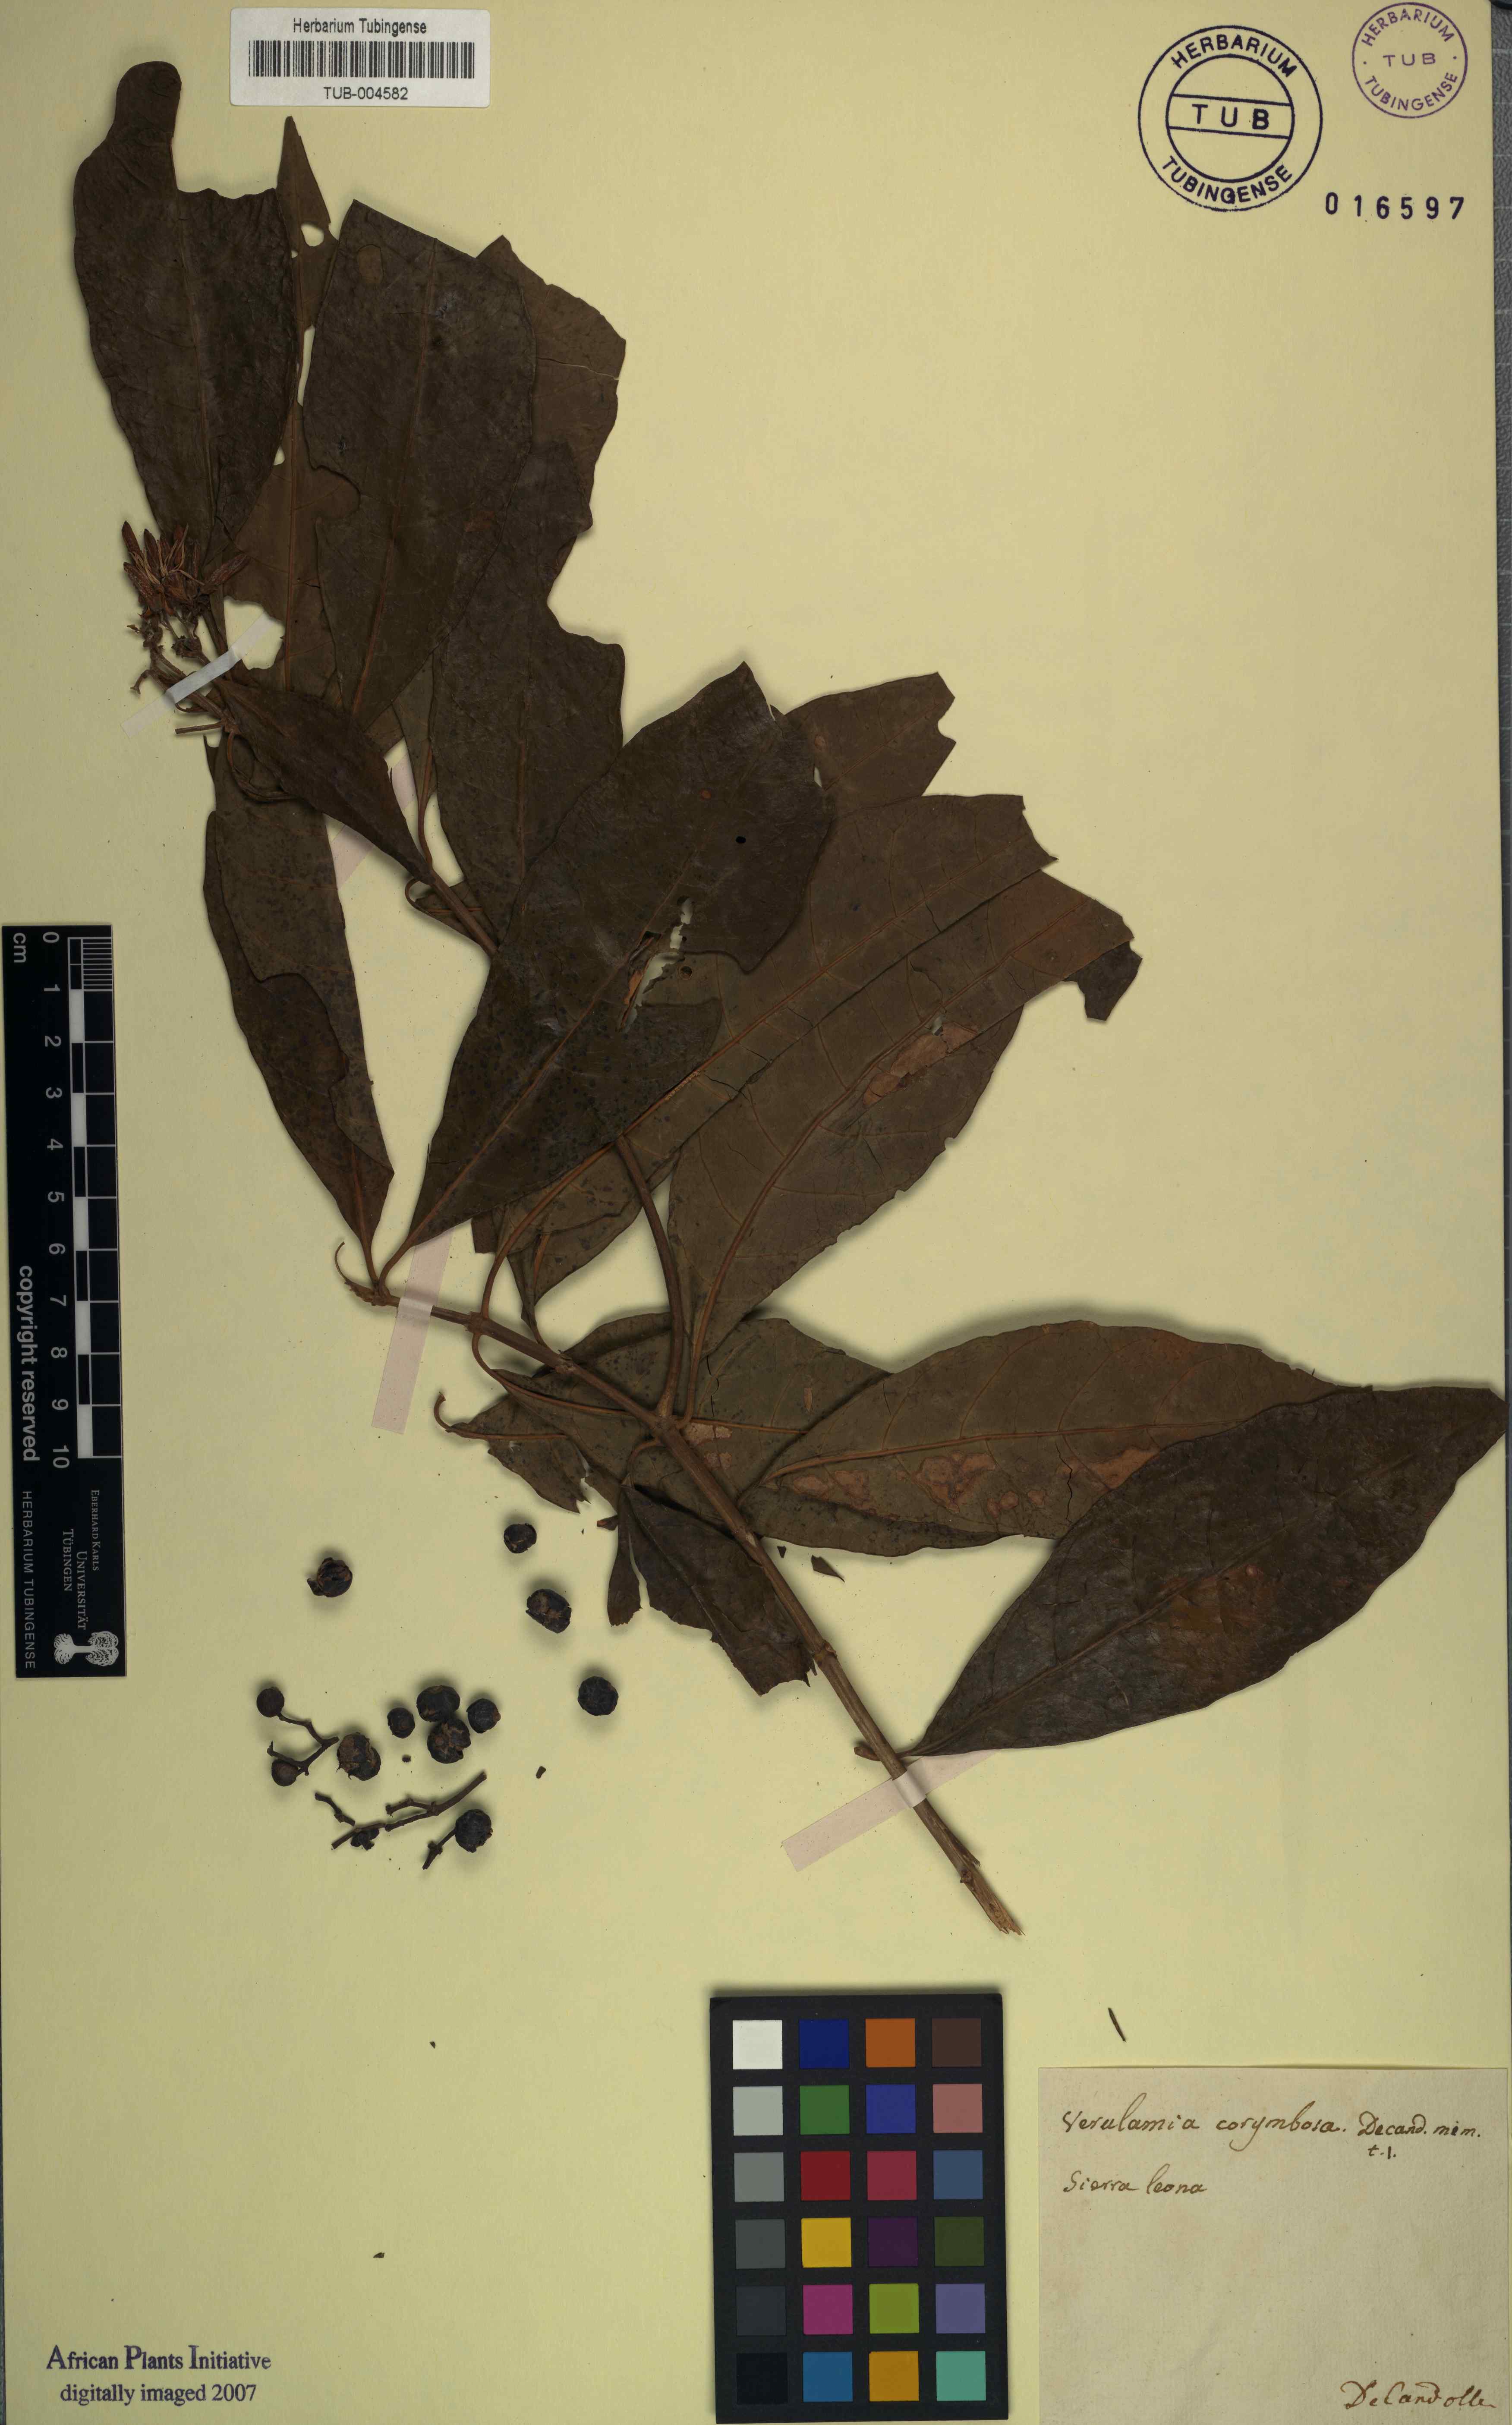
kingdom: Plantae
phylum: Tracheophyta
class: Magnoliopsida
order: Gentianales
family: Rubiaceae
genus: Pavetta
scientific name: Pavetta corymbosa
